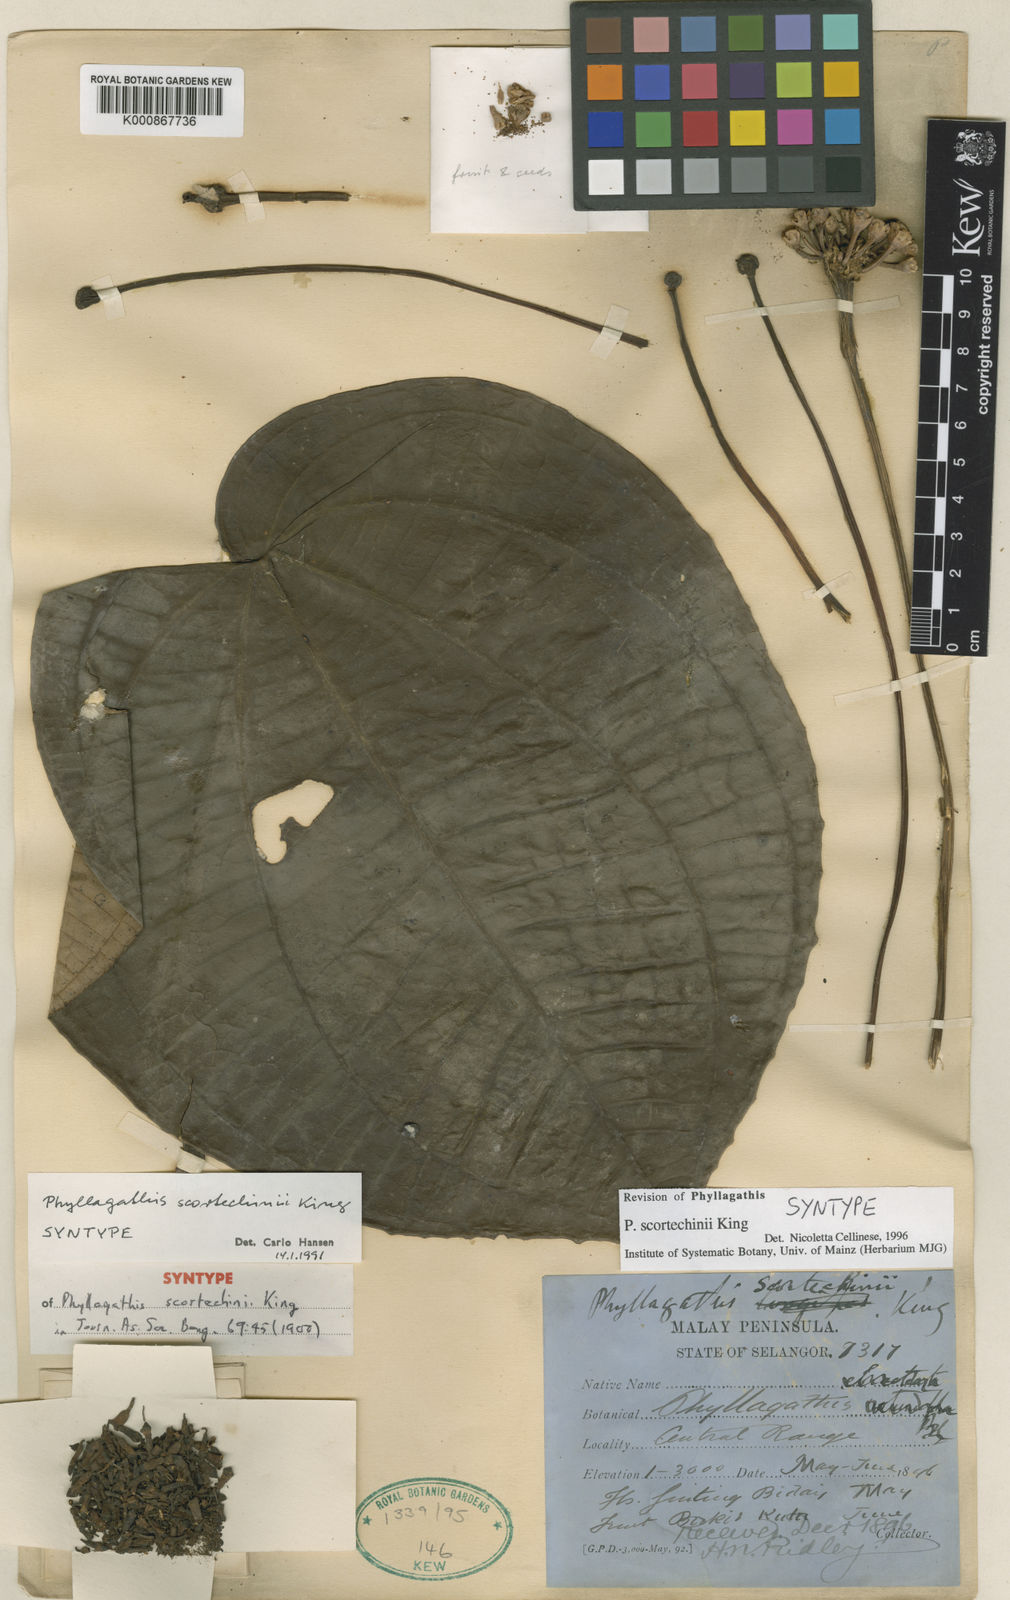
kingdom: Plantae
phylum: Tracheophyta
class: Magnoliopsida
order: Myrtales
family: Melastomataceae
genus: Phyllagathis
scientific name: Phyllagathis scortechinii
